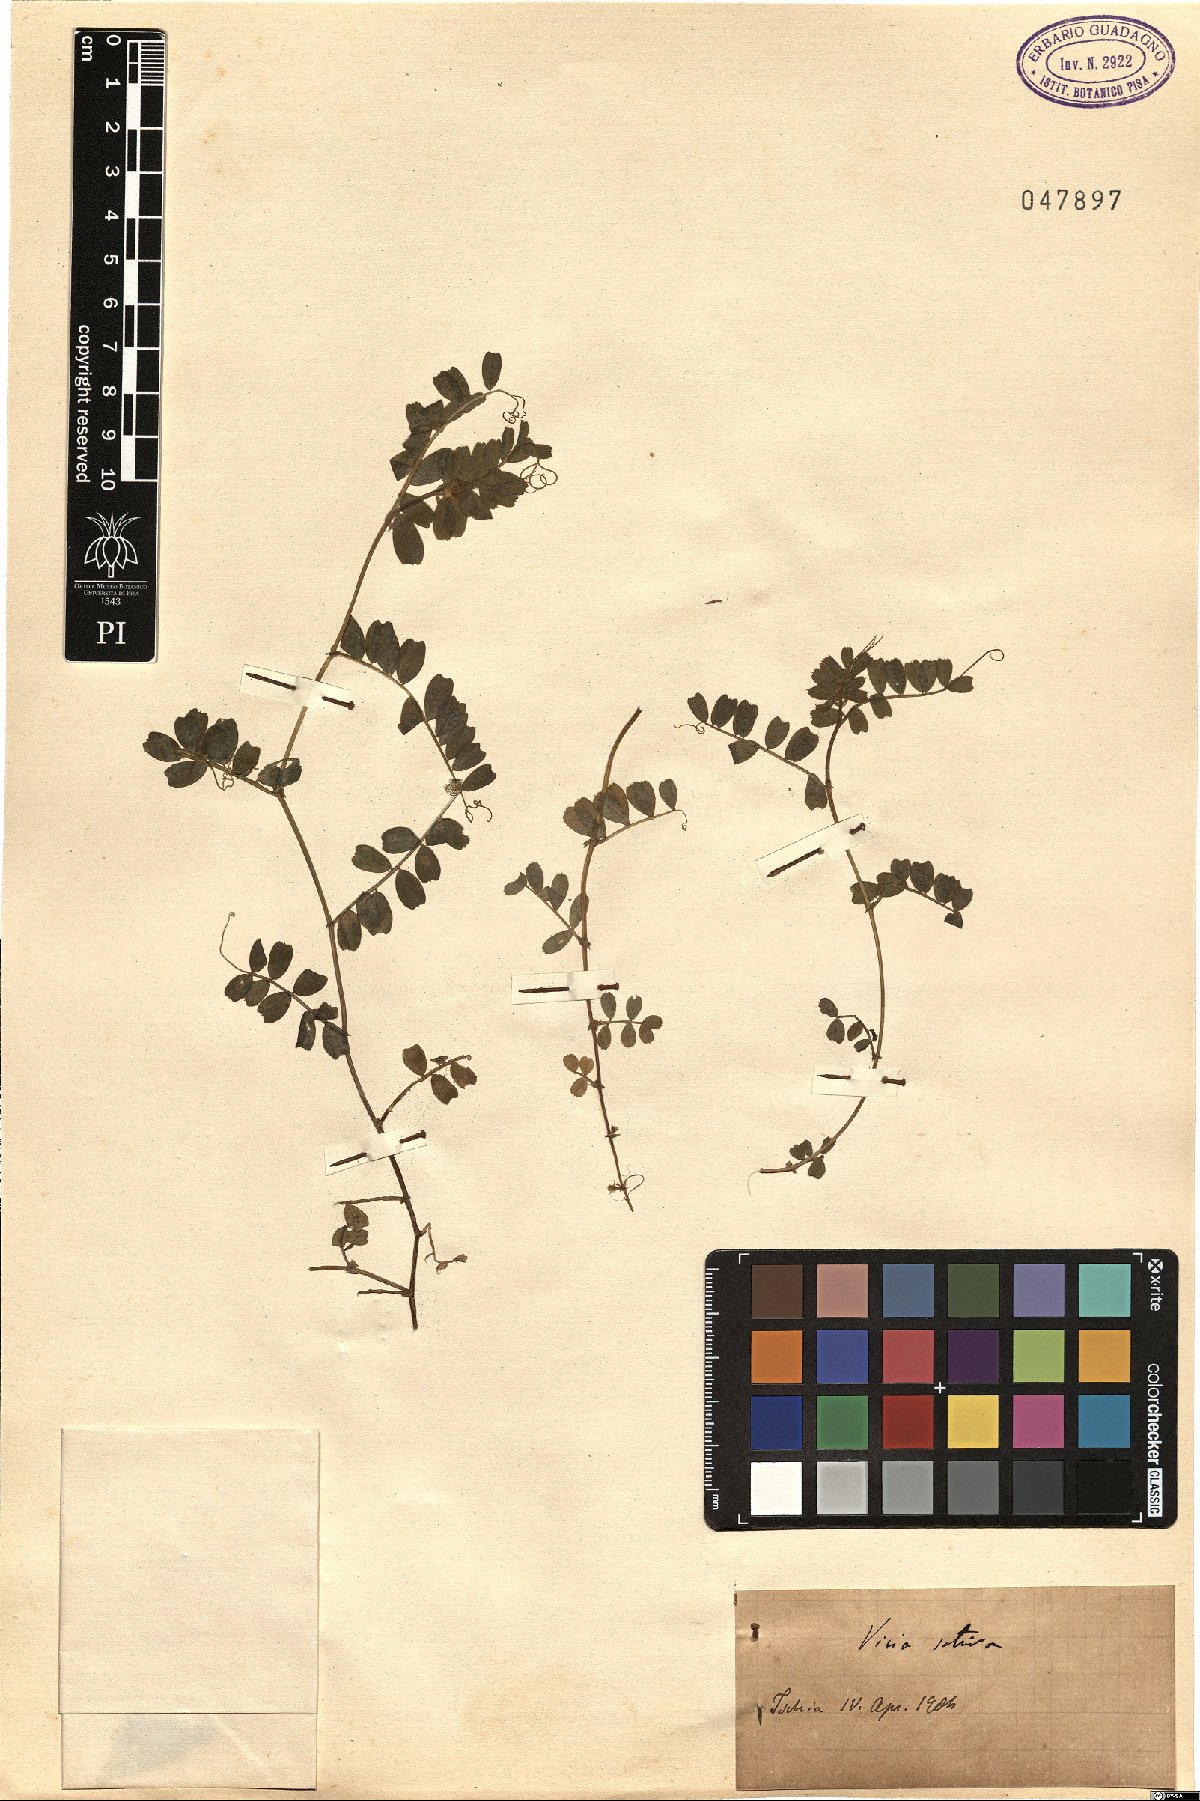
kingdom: Plantae
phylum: Tracheophyta
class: Magnoliopsida
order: Fabales
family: Fabaceae
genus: Vicia
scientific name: Vicia sativa
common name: Garden vetch
